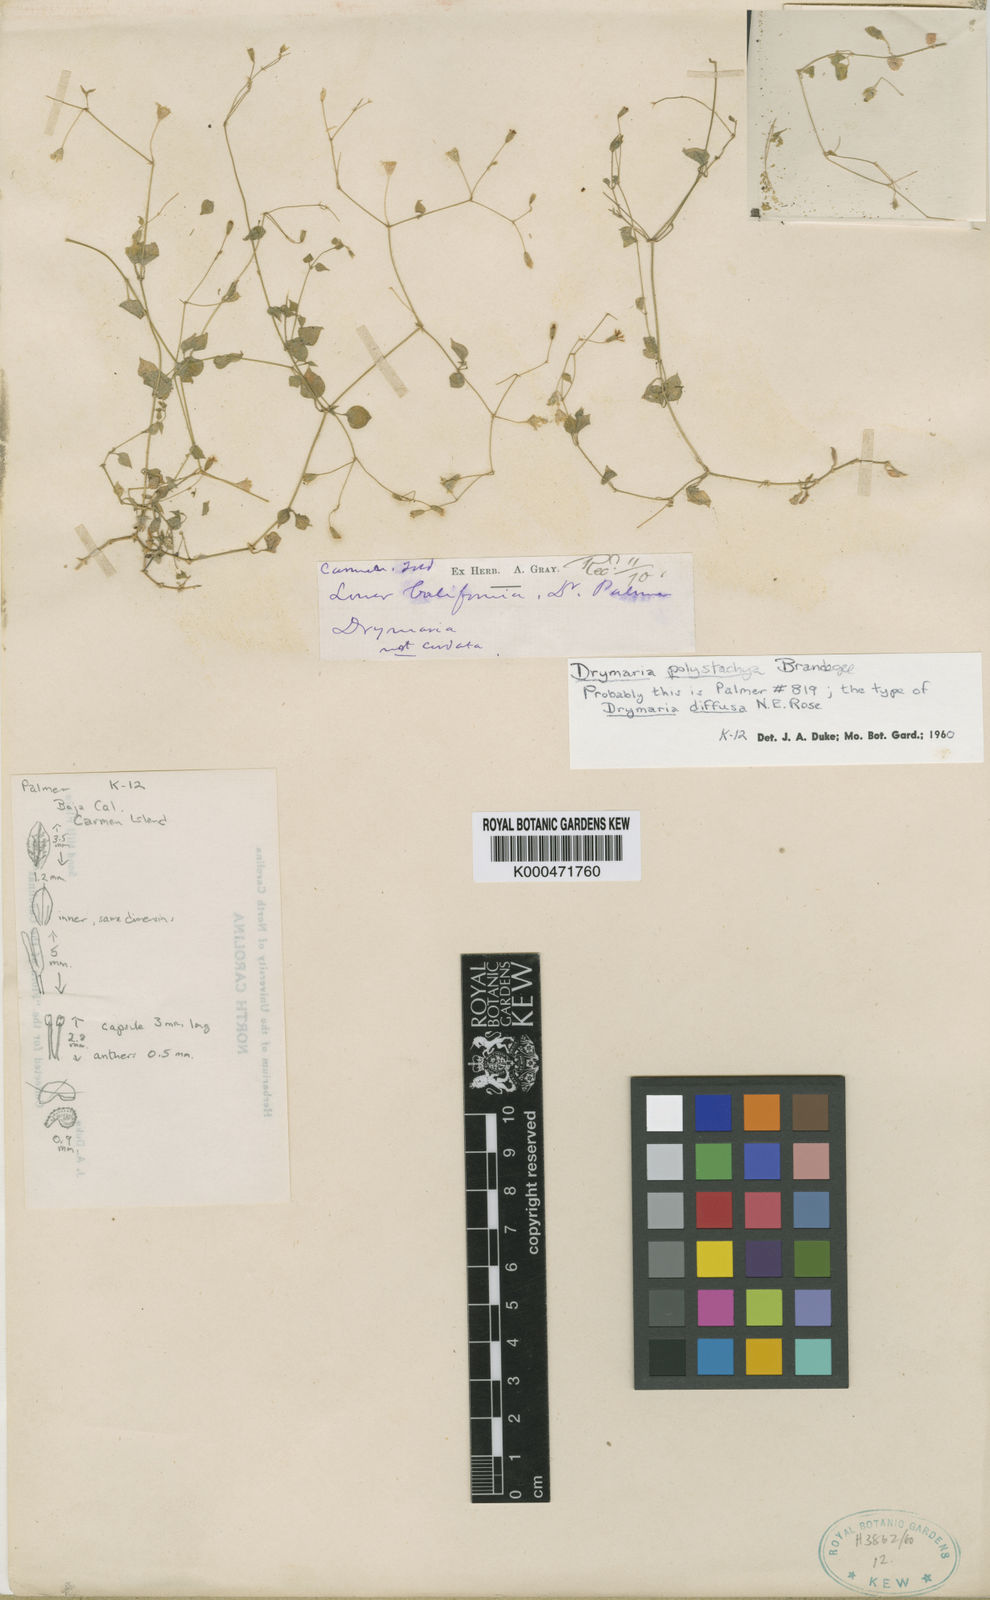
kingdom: Plantae
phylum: Tracheophyta
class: Magnoliopsida
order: Caryophyllales
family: Caryophyllaceae
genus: Drymaria
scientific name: Drymaria debilis
